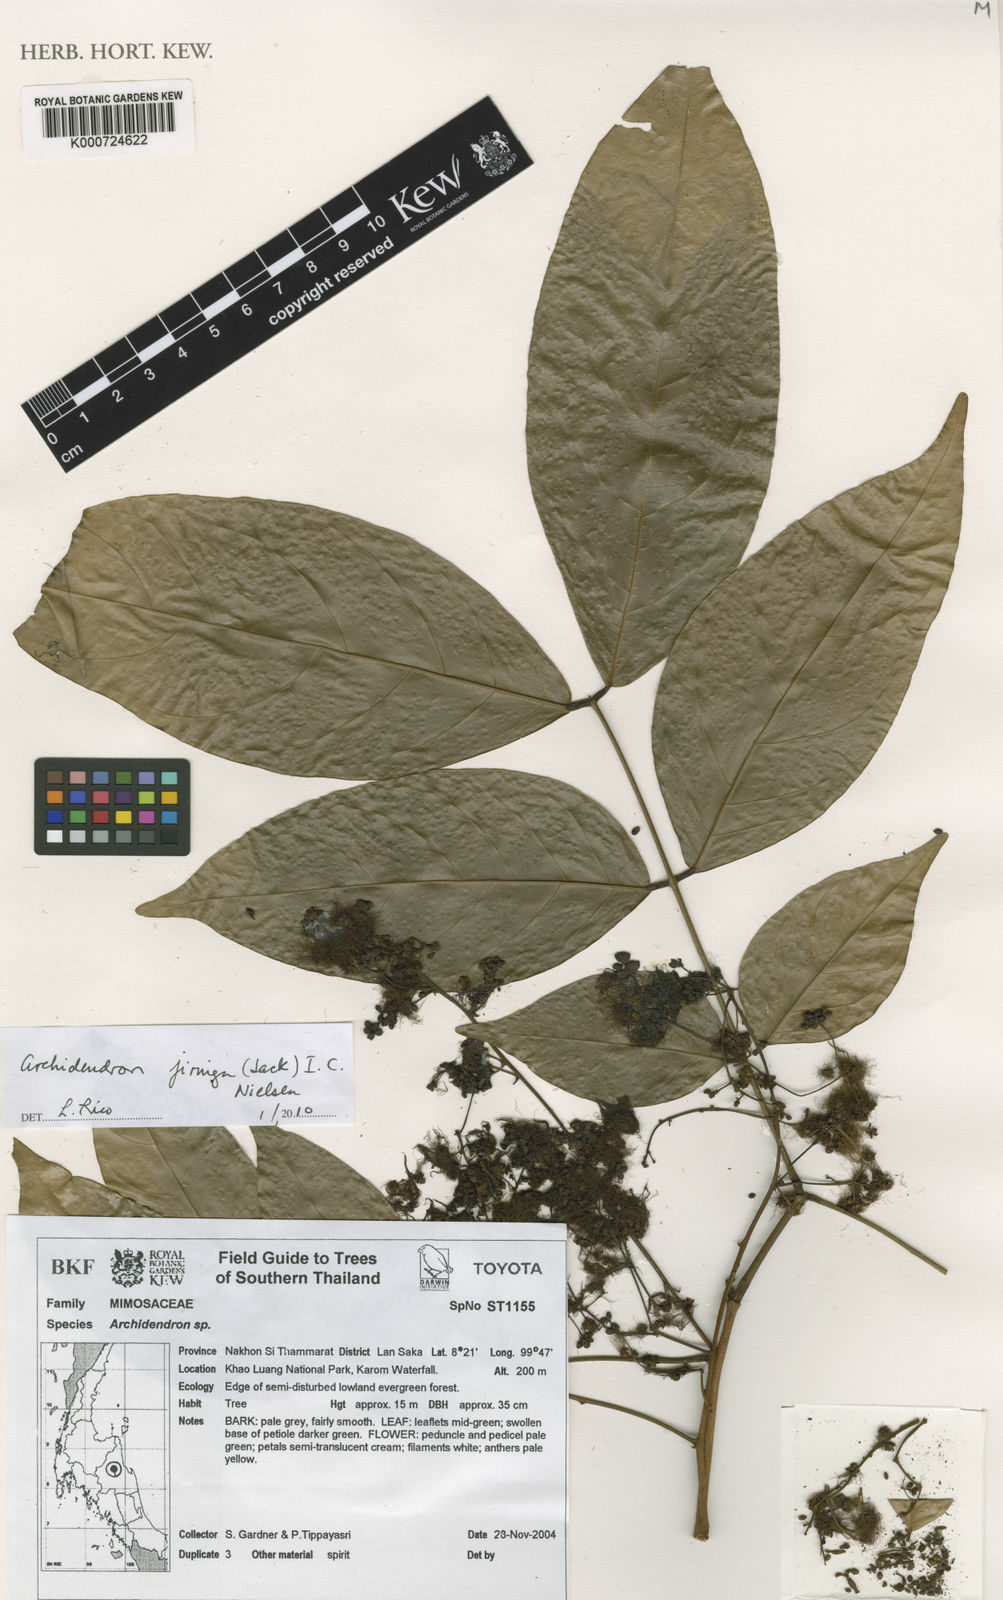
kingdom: Plantae
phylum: Tracheophyta
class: Magnoliopsida
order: Fabales
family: Fabaceae
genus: Archidendron
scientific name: Archidendron jiringa
